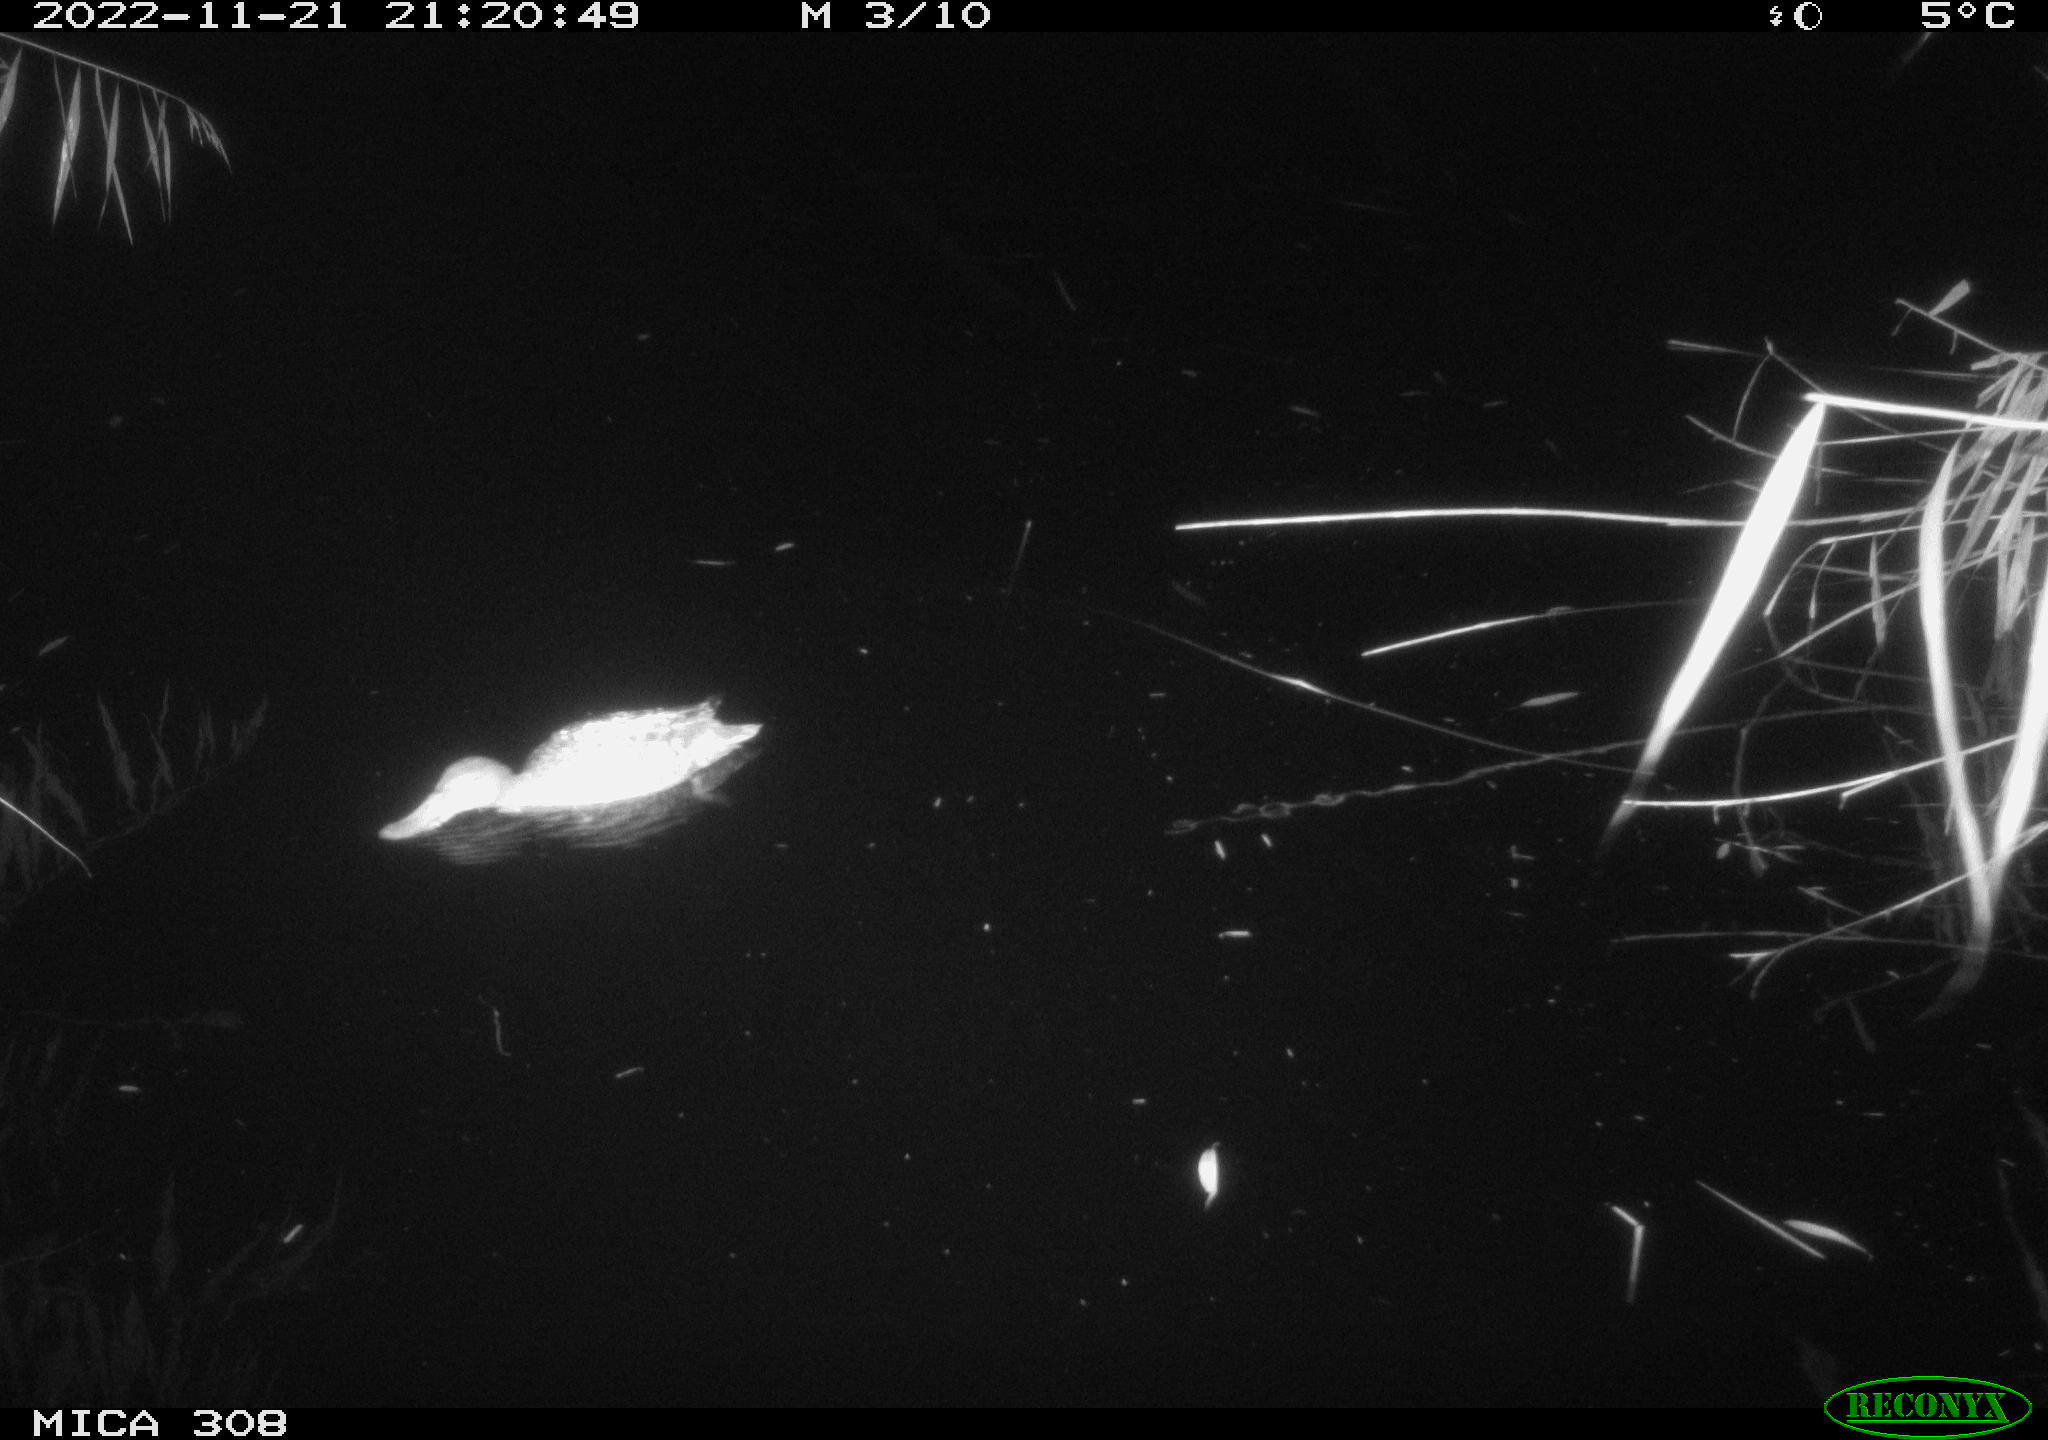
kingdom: Animalia
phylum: Chordata
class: Aves
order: Anseriformes
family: Anatidae
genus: Anas
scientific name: Anas
